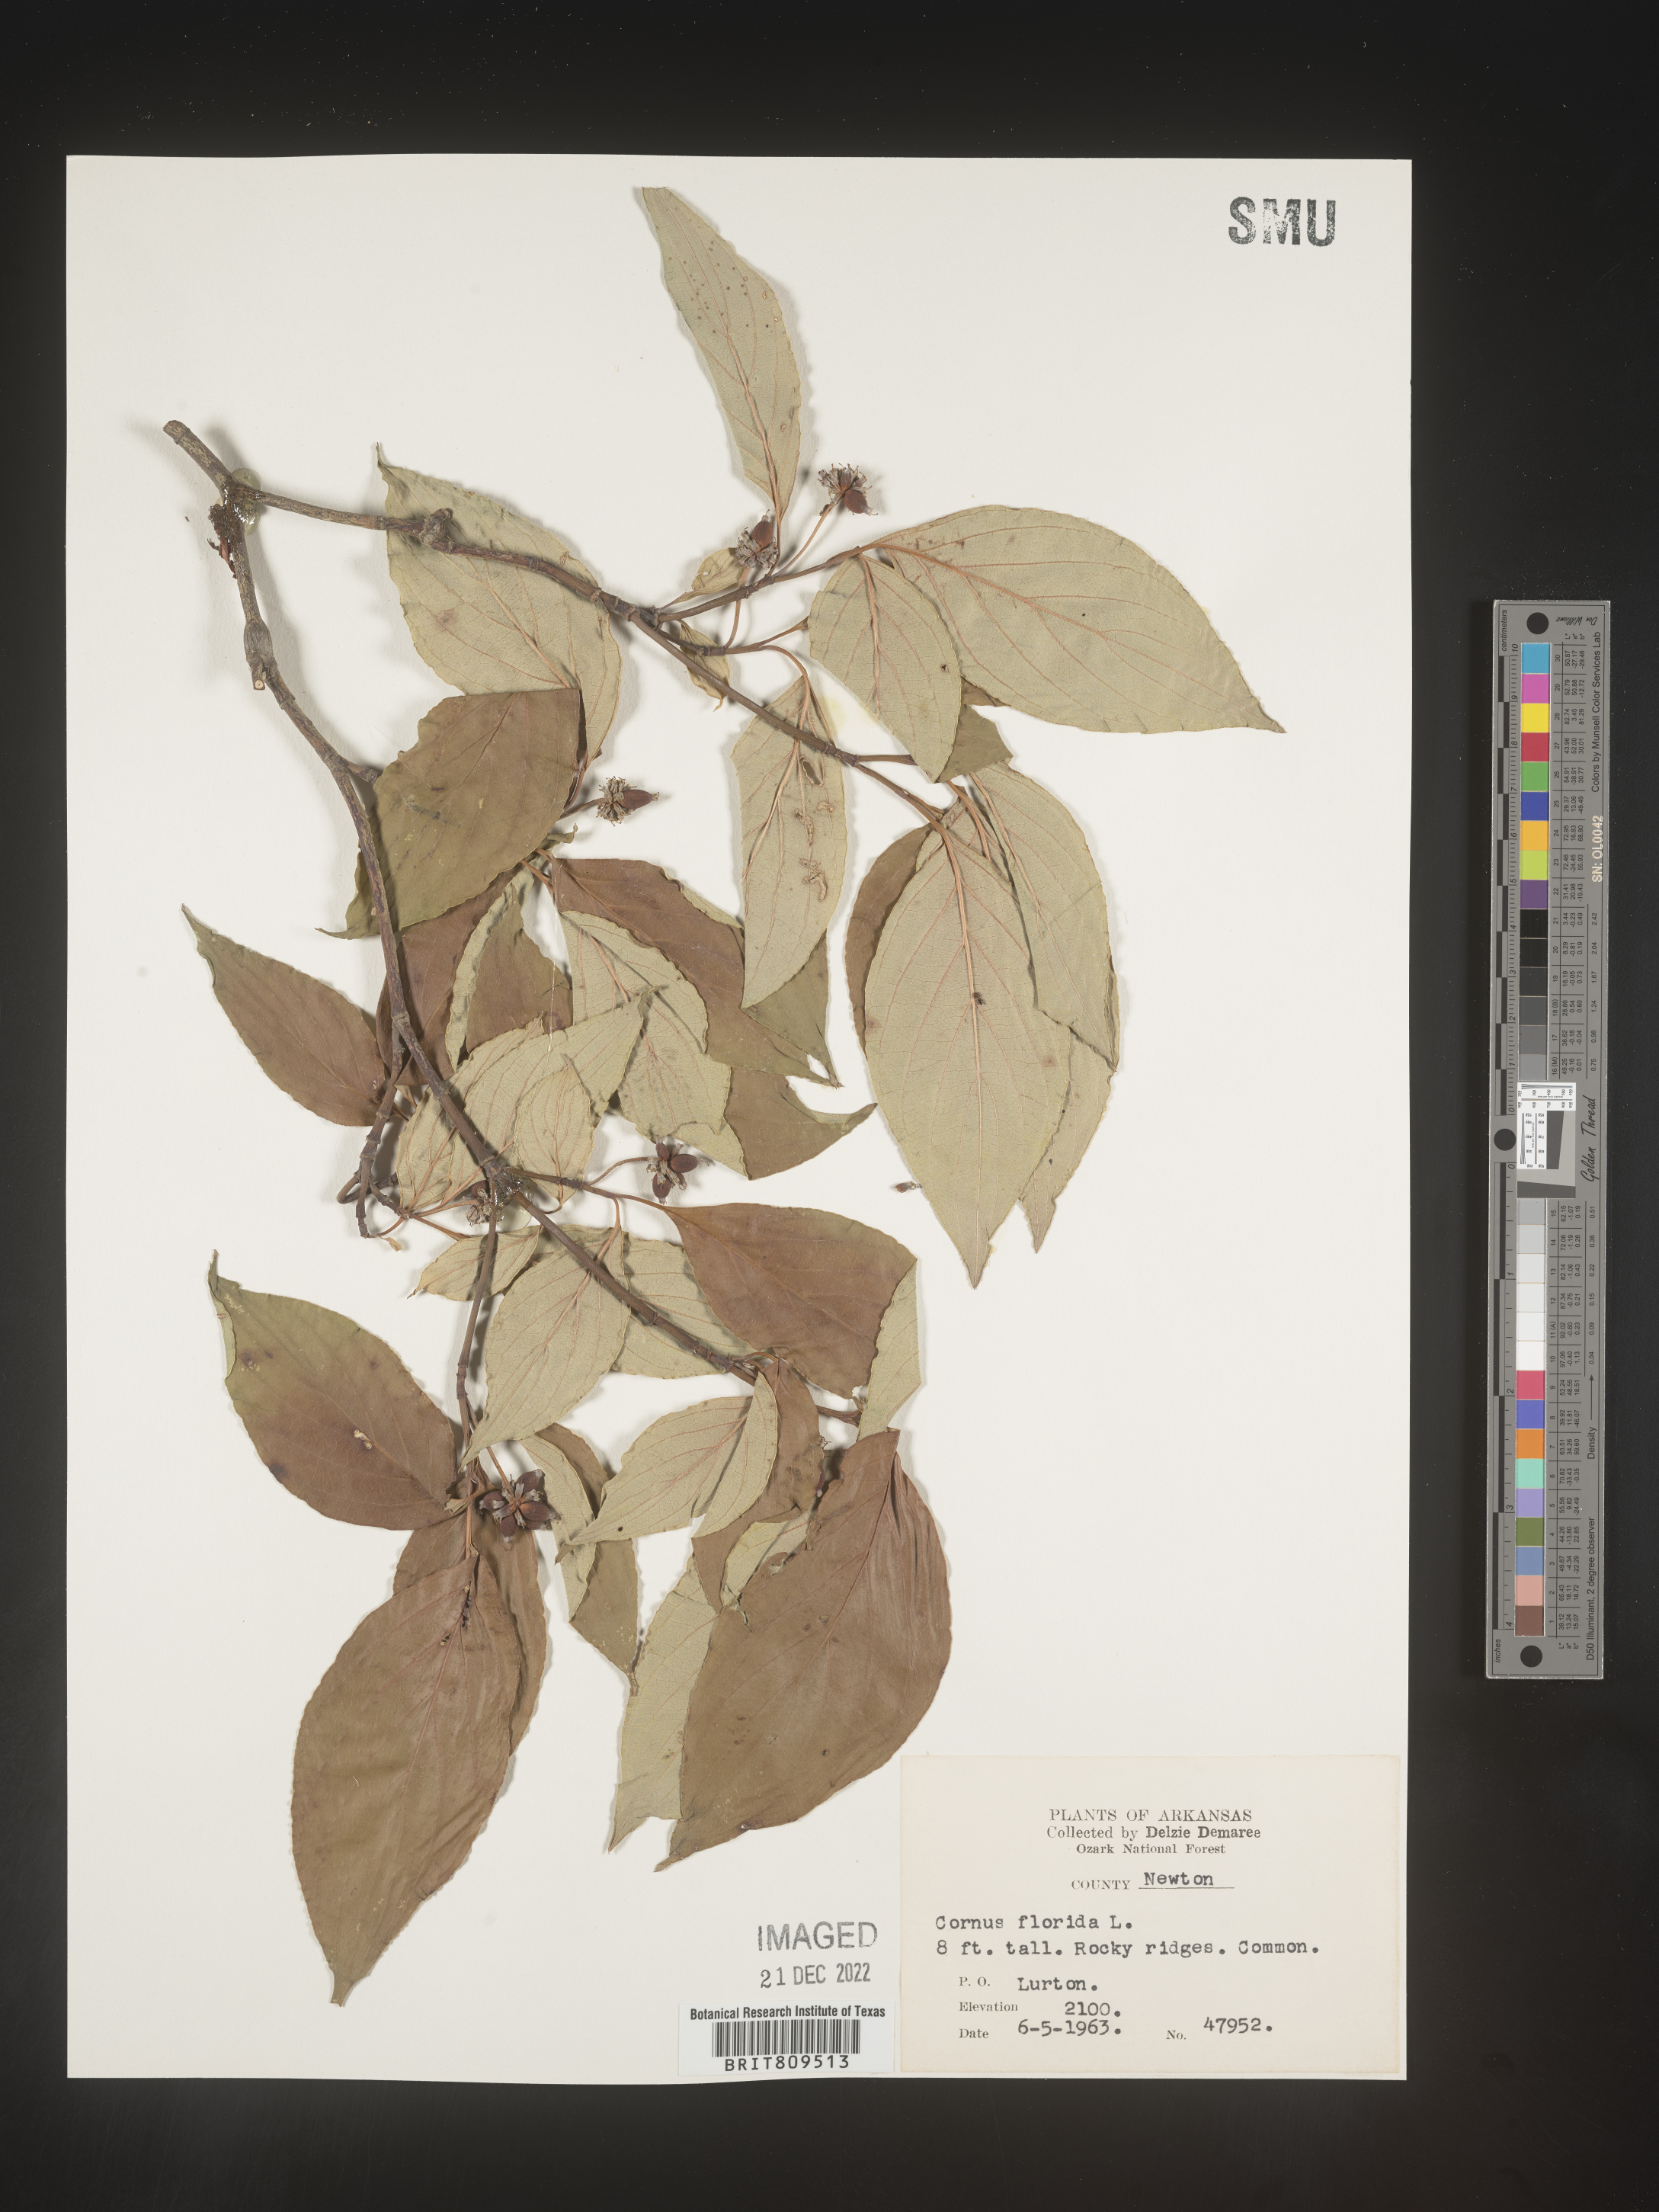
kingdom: Plantae
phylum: Tracheophyta
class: Magnoliopsida
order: Cornales
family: Cornaceae
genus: Cornus
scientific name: Cornus florida
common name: Flowering dogwood
